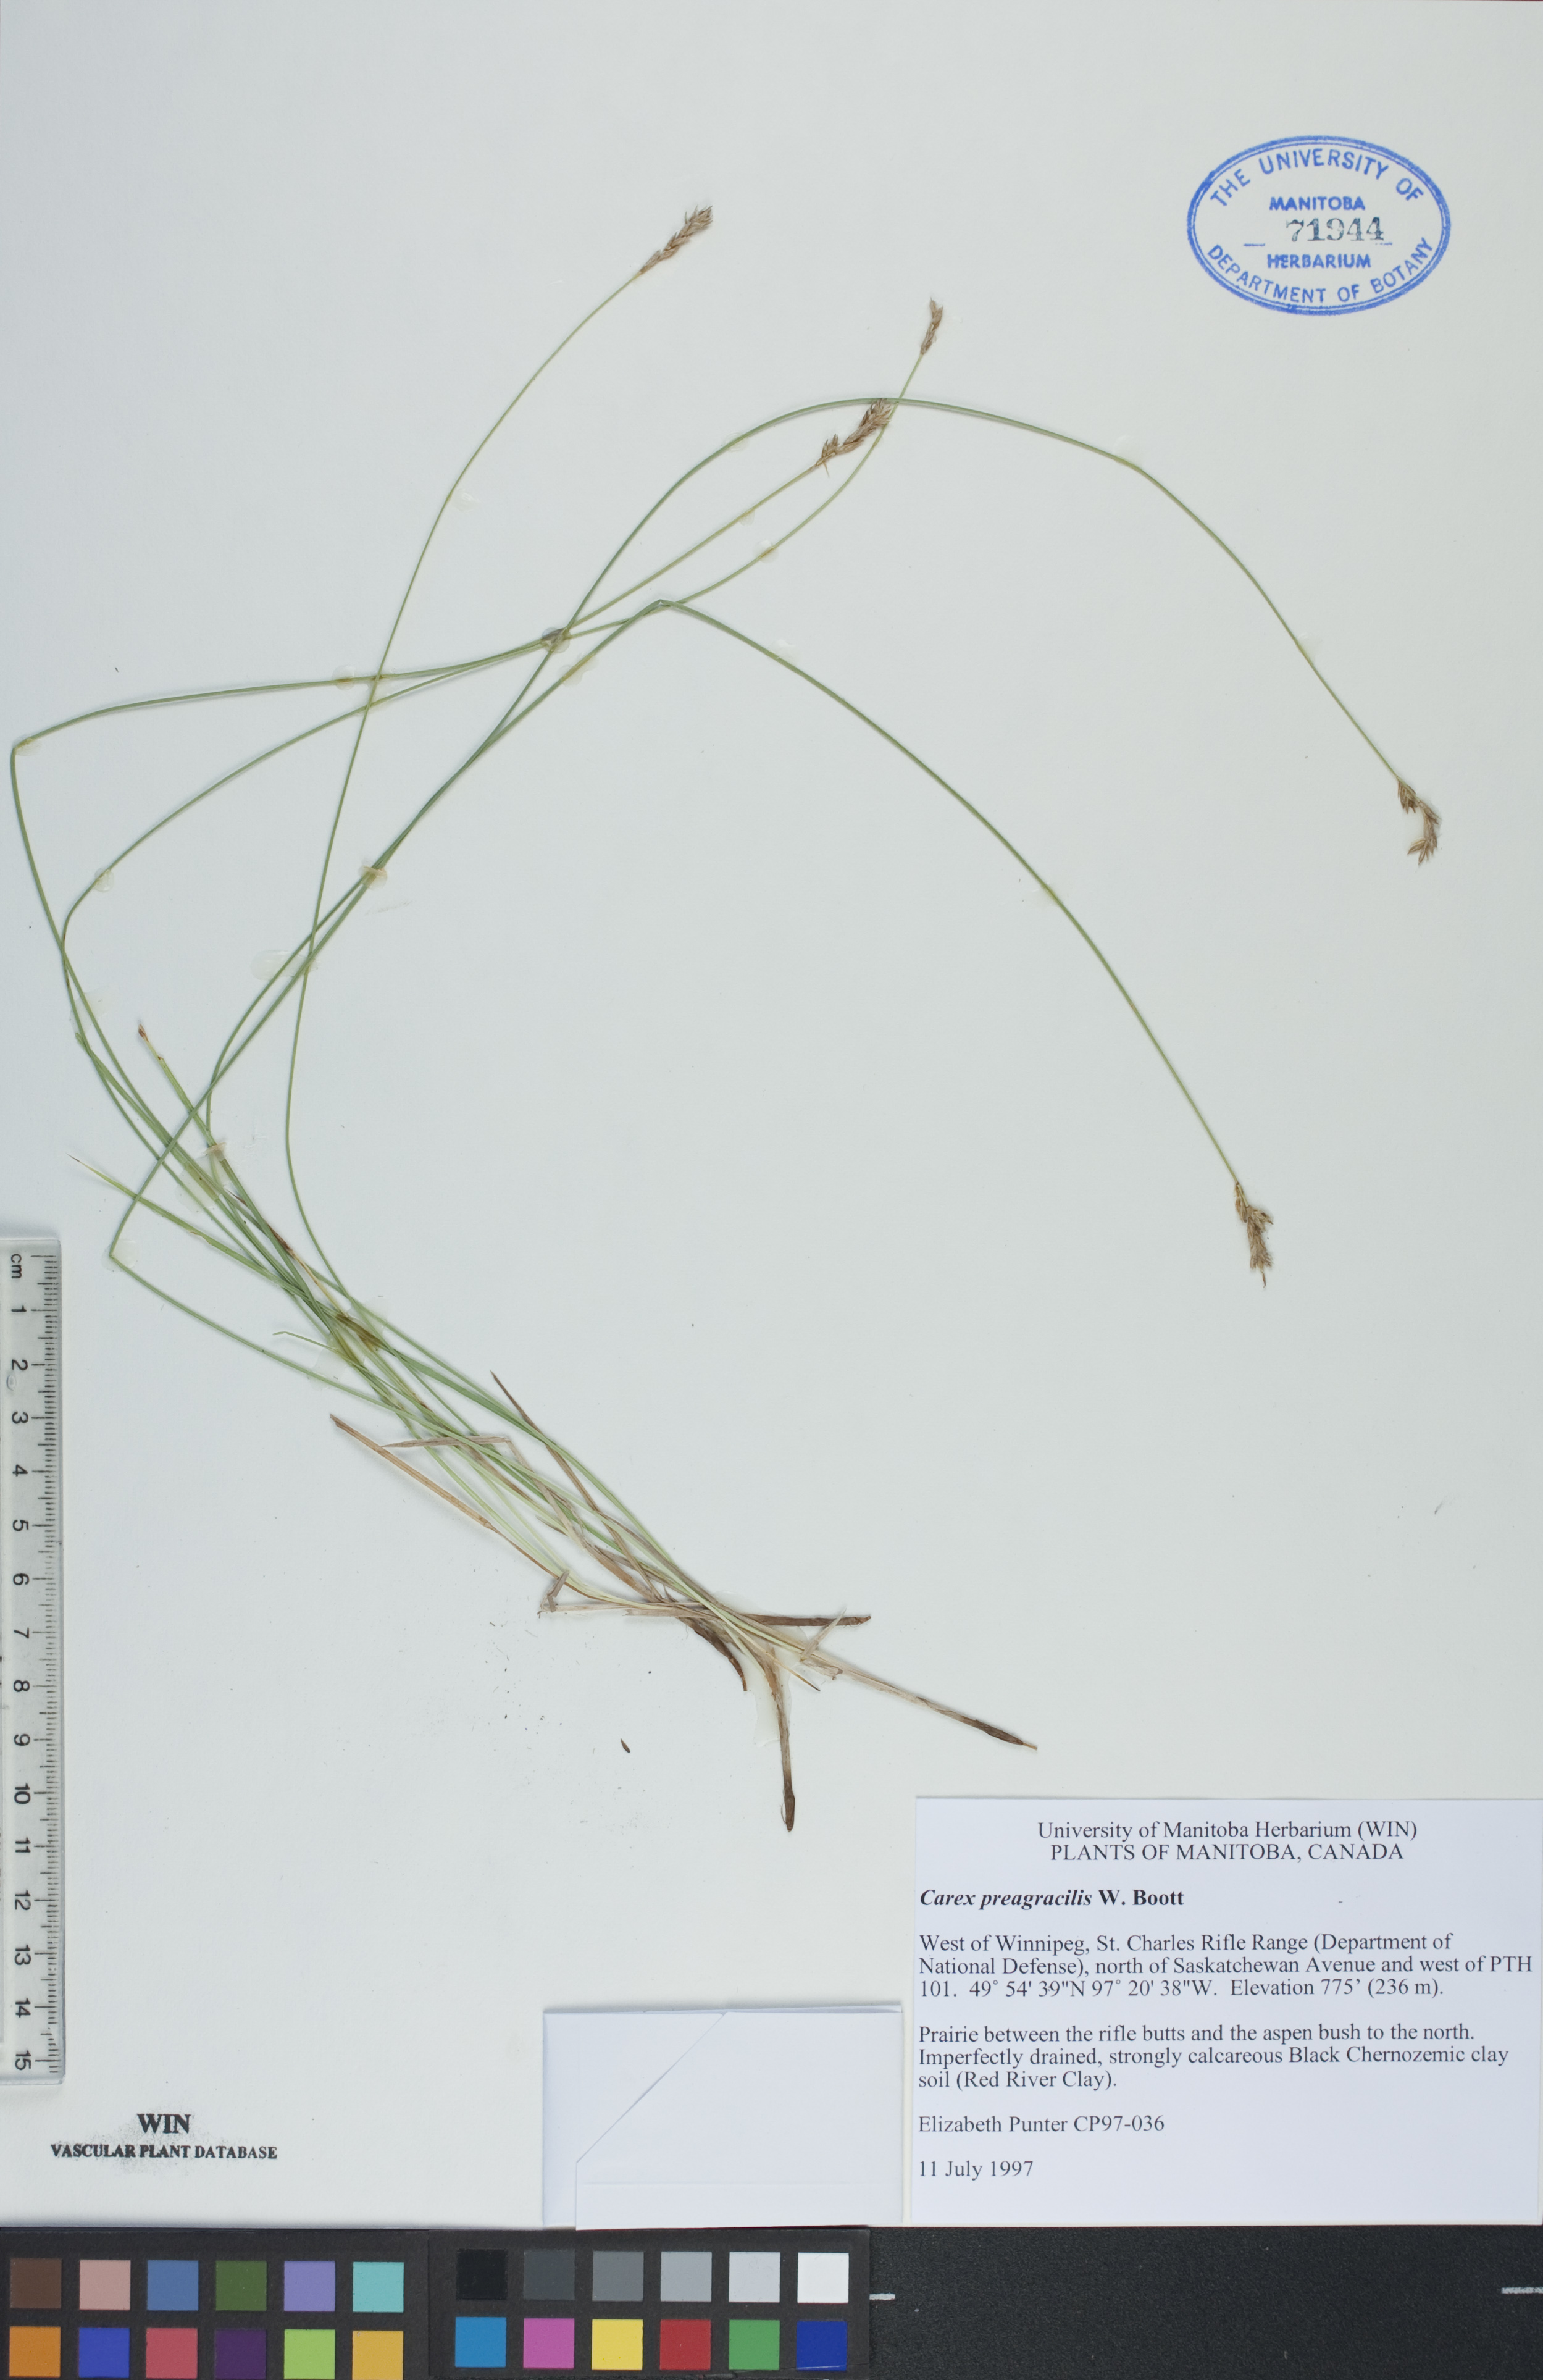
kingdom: Plantae
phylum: Tracheophyta
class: Liliopsida
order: Poales
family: Cyperaceae
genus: Carex
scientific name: Carex praegracilis
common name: Black creeper sedge
